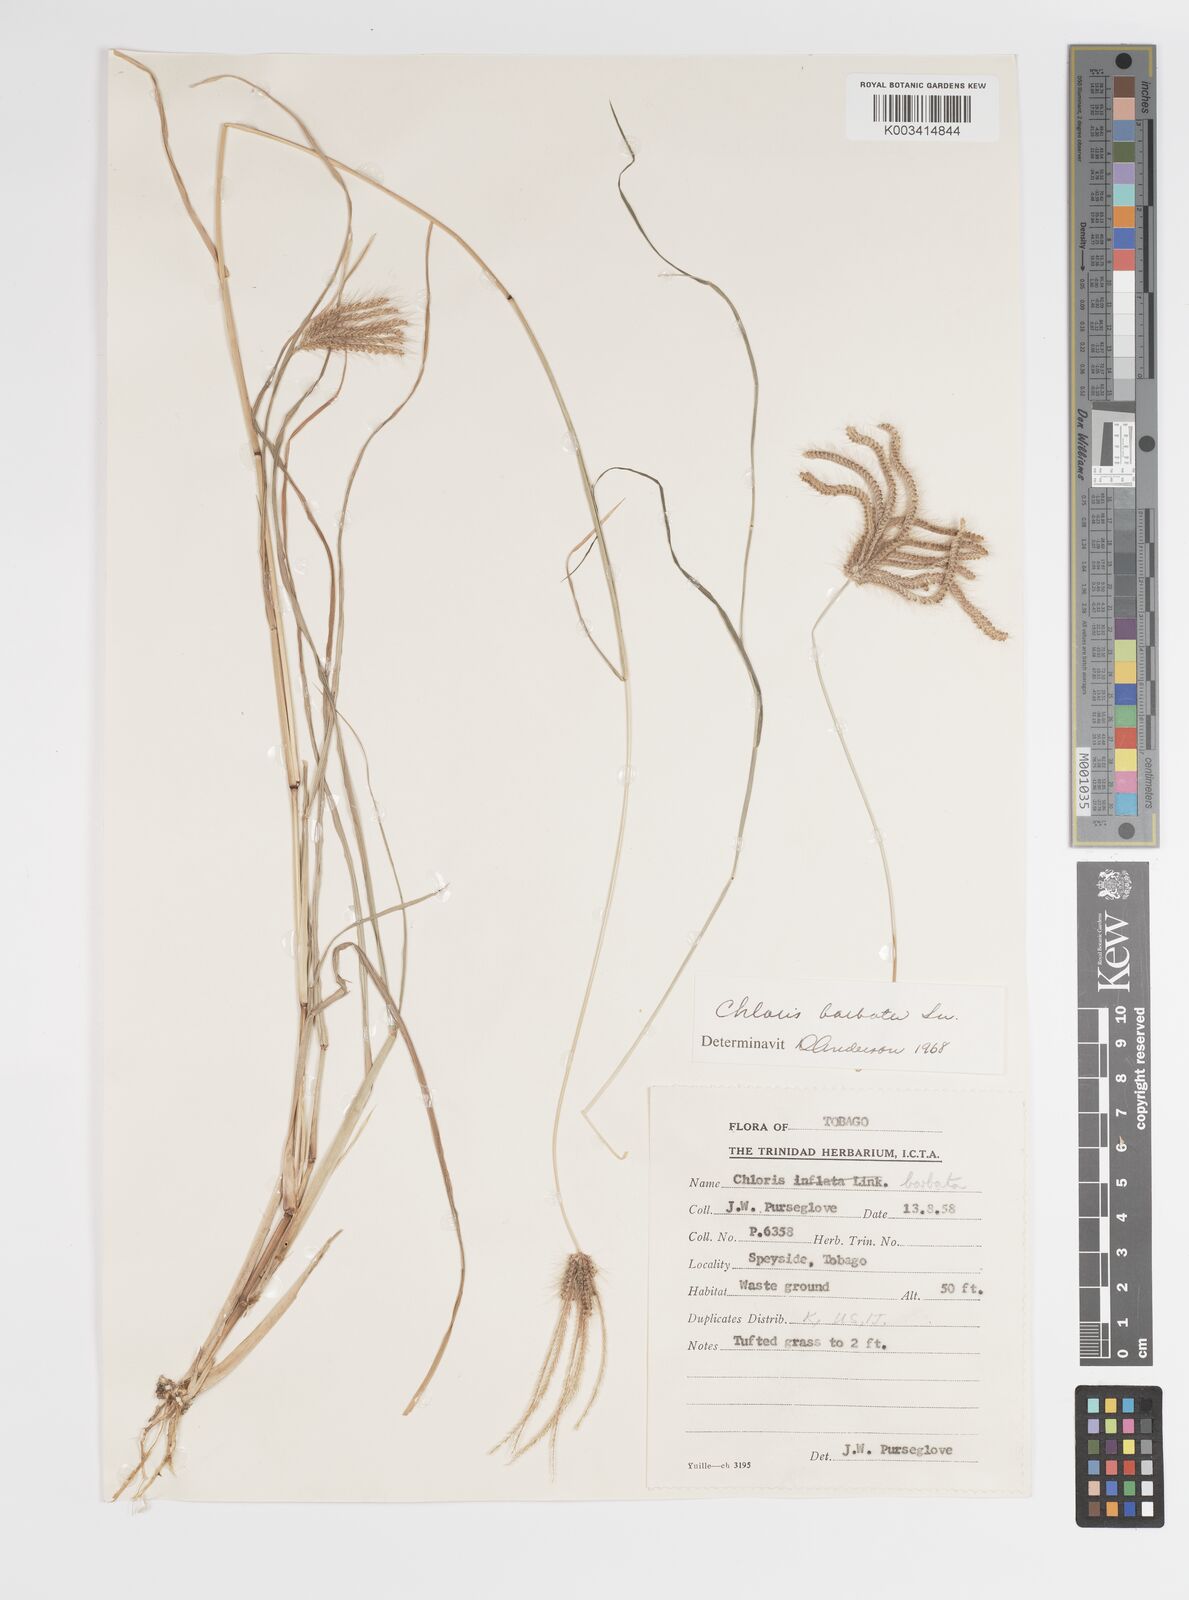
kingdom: Plantae
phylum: Tracheophyta
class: Liliopsida
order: Poales
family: Poaceae
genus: Chloris
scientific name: Chloris barbata
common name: Swollen fingergrass
